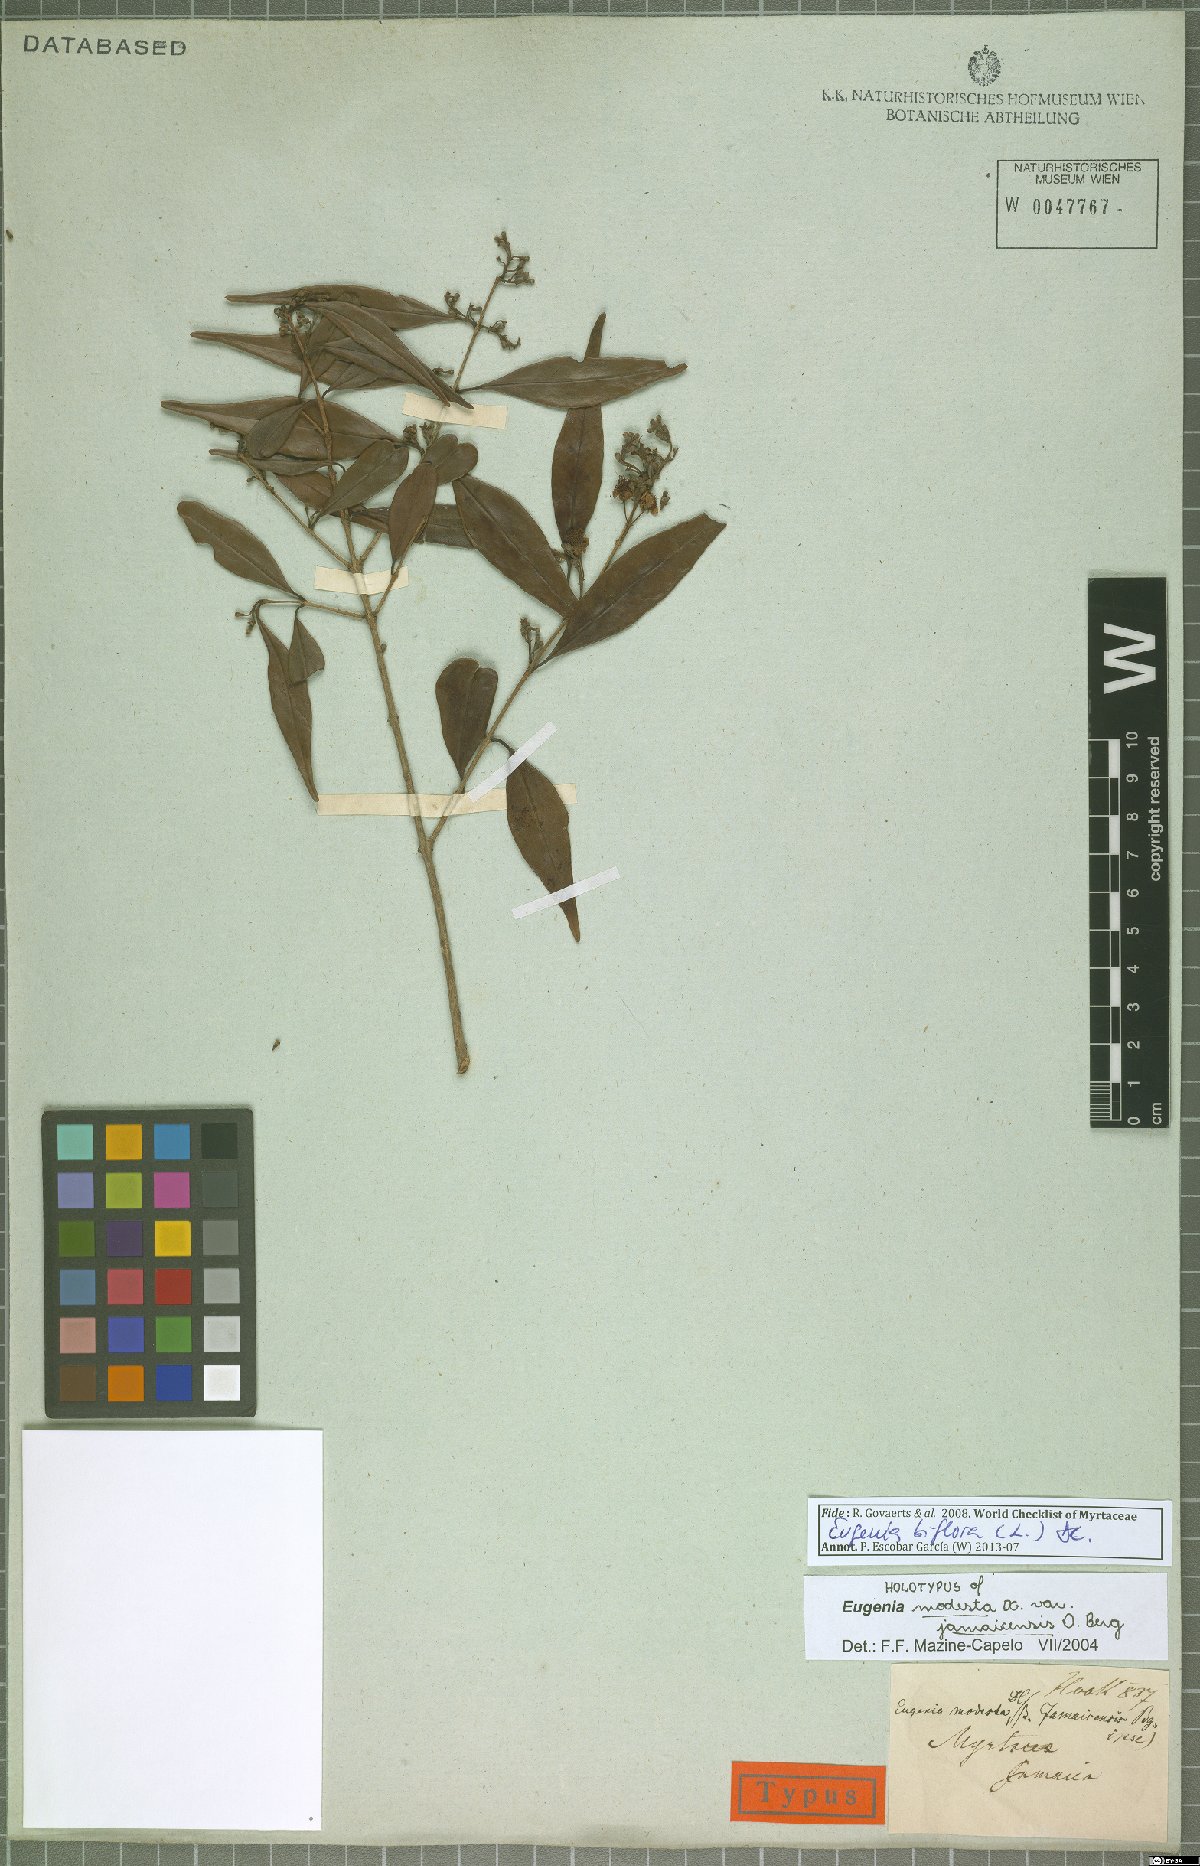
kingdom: Plantae
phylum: Tracheophyta
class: Magnoliopsida
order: Myrtales
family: Myrtaceae
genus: Eugenia
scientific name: Eugenia biflora
